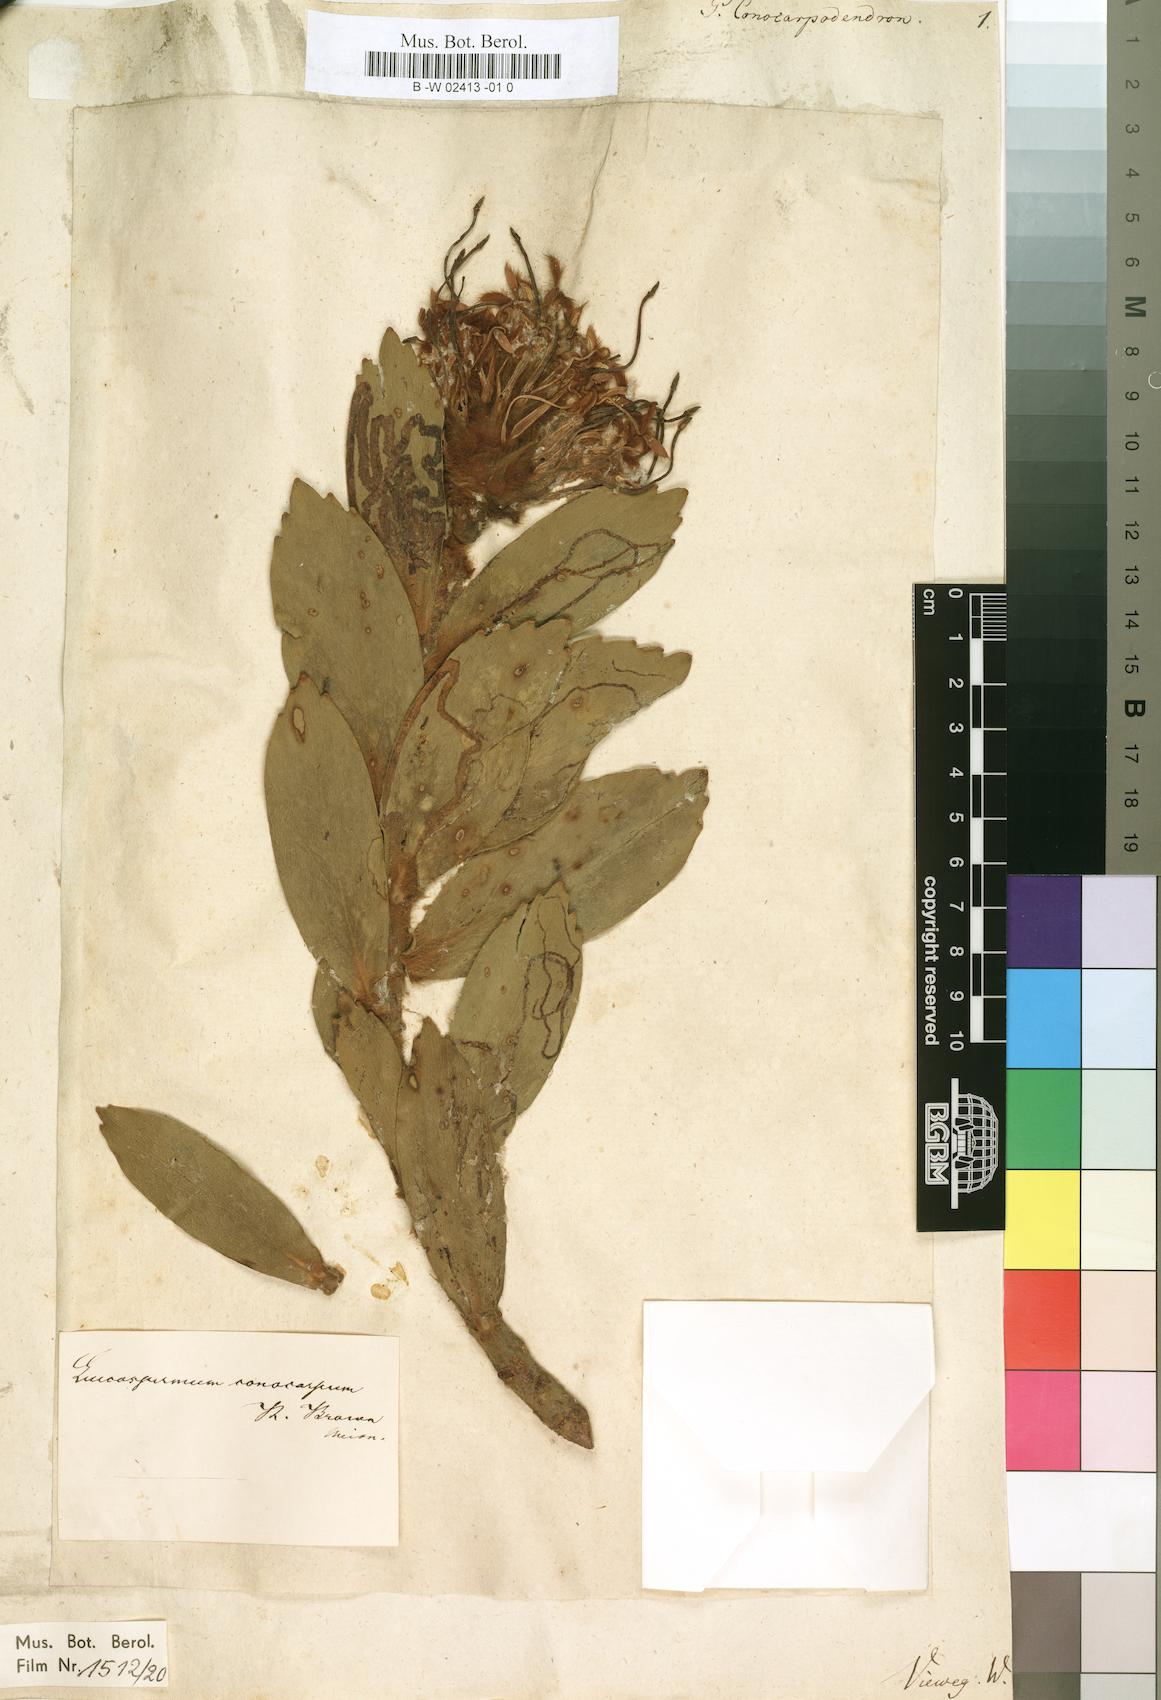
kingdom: Plantae
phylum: Tracheophyta
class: Magnoliopsida
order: Proteales
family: Proteaceae
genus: Leucospermum
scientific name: Leucospermum conocarpodendron
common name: Tree pincushion
